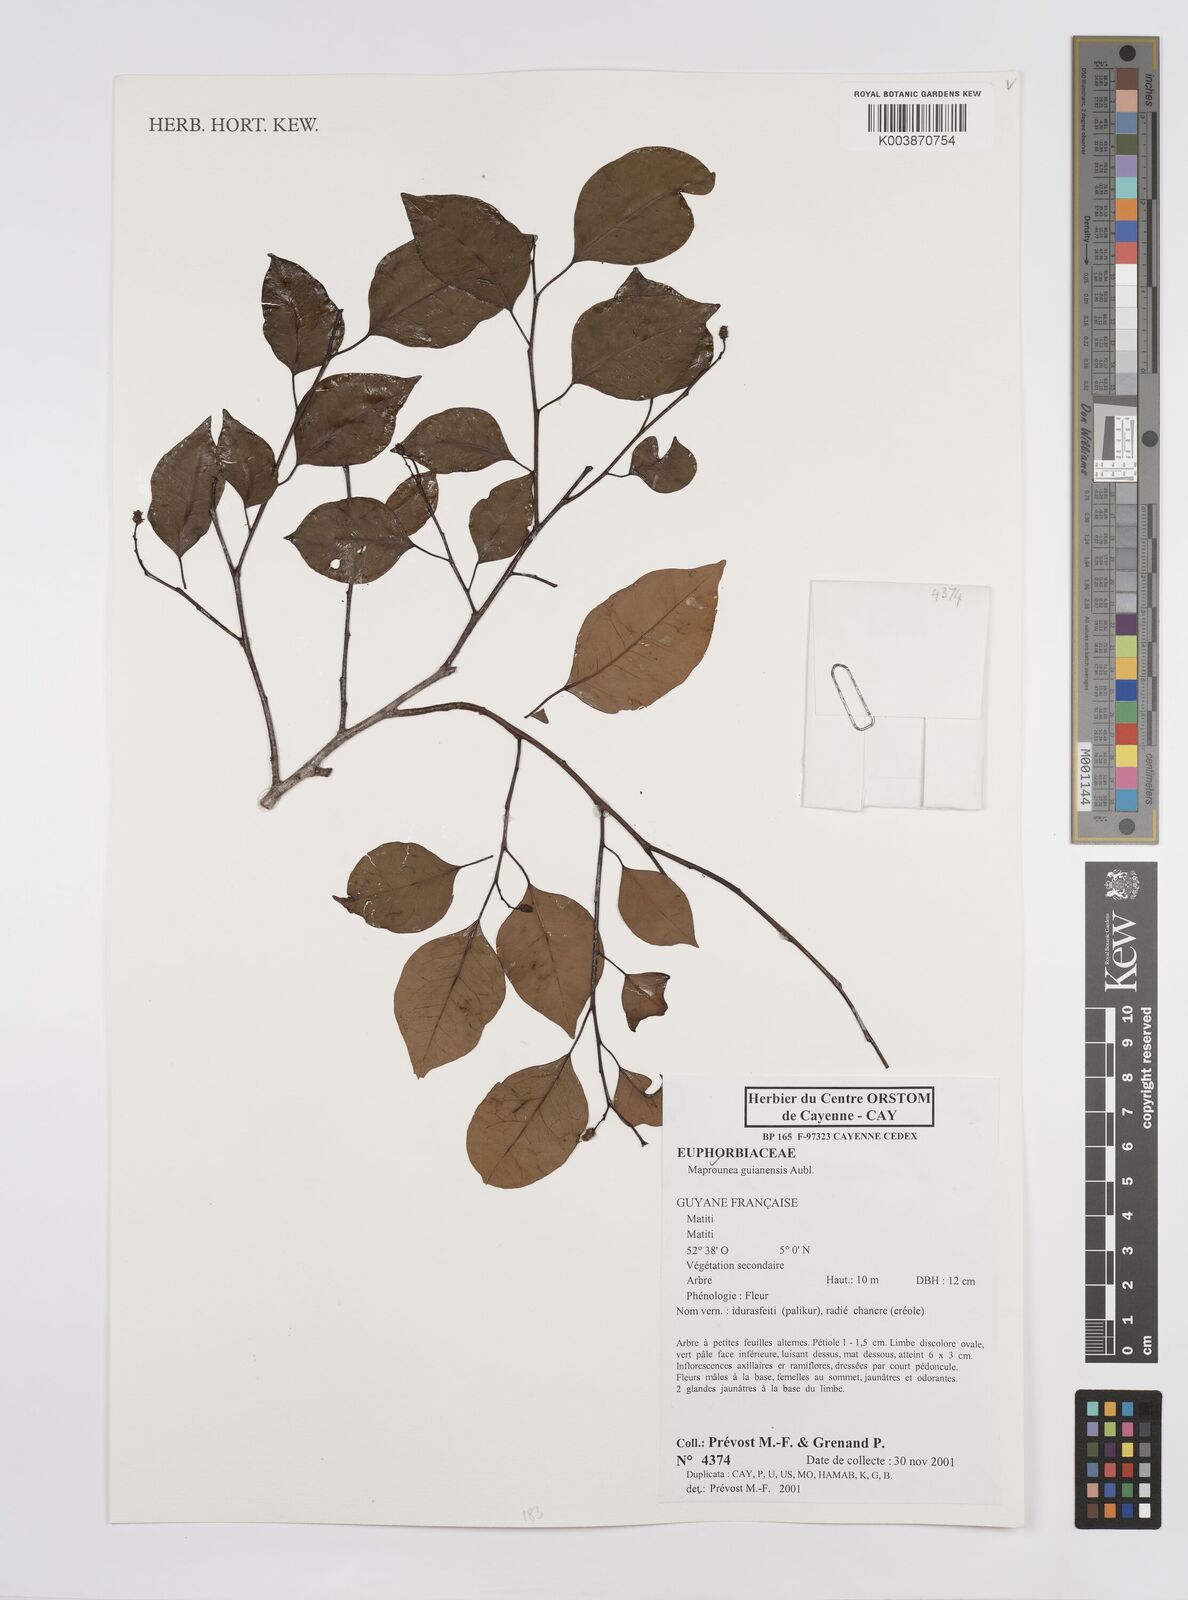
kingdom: Plantae
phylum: Tracheophyta
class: Magnoliopsida
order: Malpighiales
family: Euphorbiaceae
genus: Maprounea
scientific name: Maprounea guianensis
